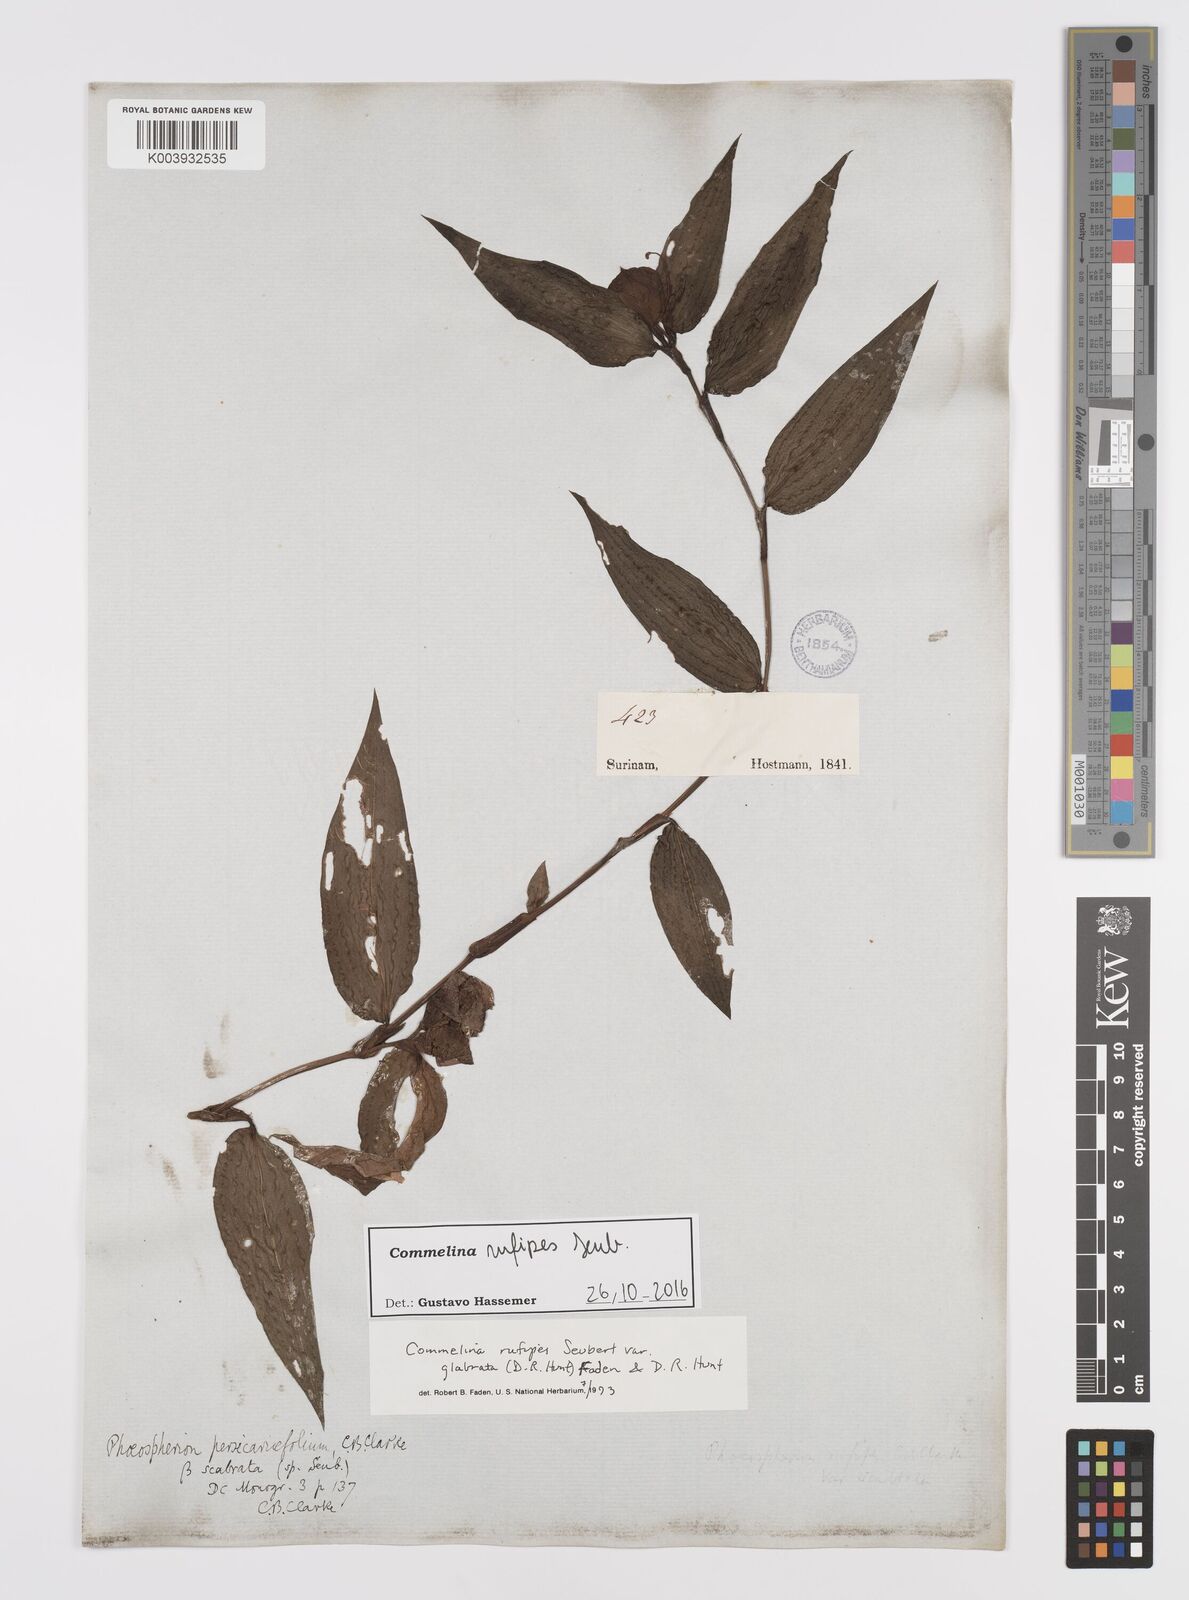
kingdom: Plantae
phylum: Tracheophyta
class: Liliopsida
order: Commelinales
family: Commelinaceae
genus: Commelina
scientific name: Commelina rufipes
